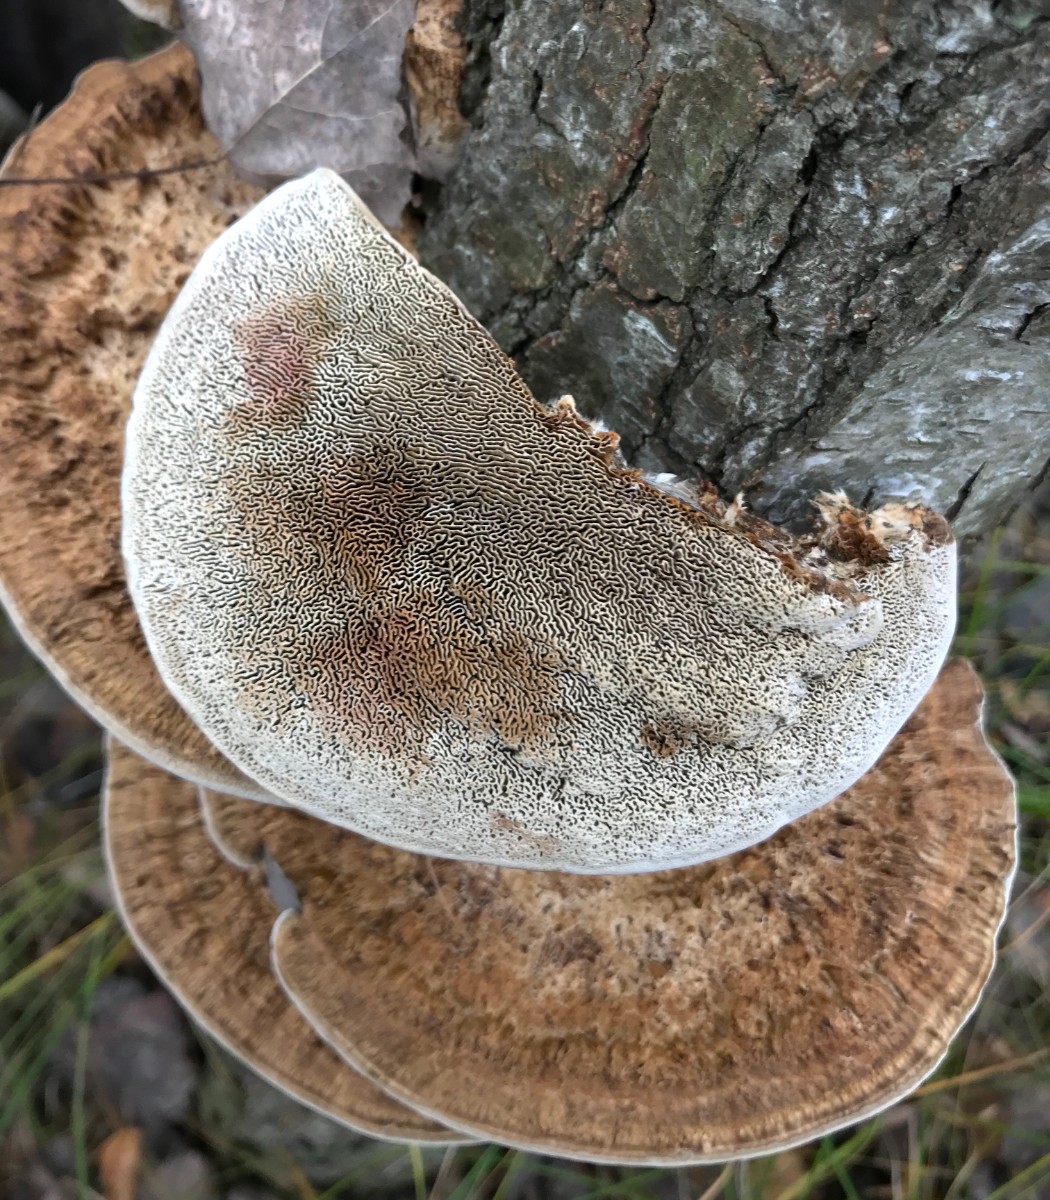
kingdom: Fungi
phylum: Basidiomycota
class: Agaricomycetes
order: Polyporales
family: Polyporaceae
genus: Daedaleopsis
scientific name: Daedaleopsis confragosa
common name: rødmende læderporesvamp
